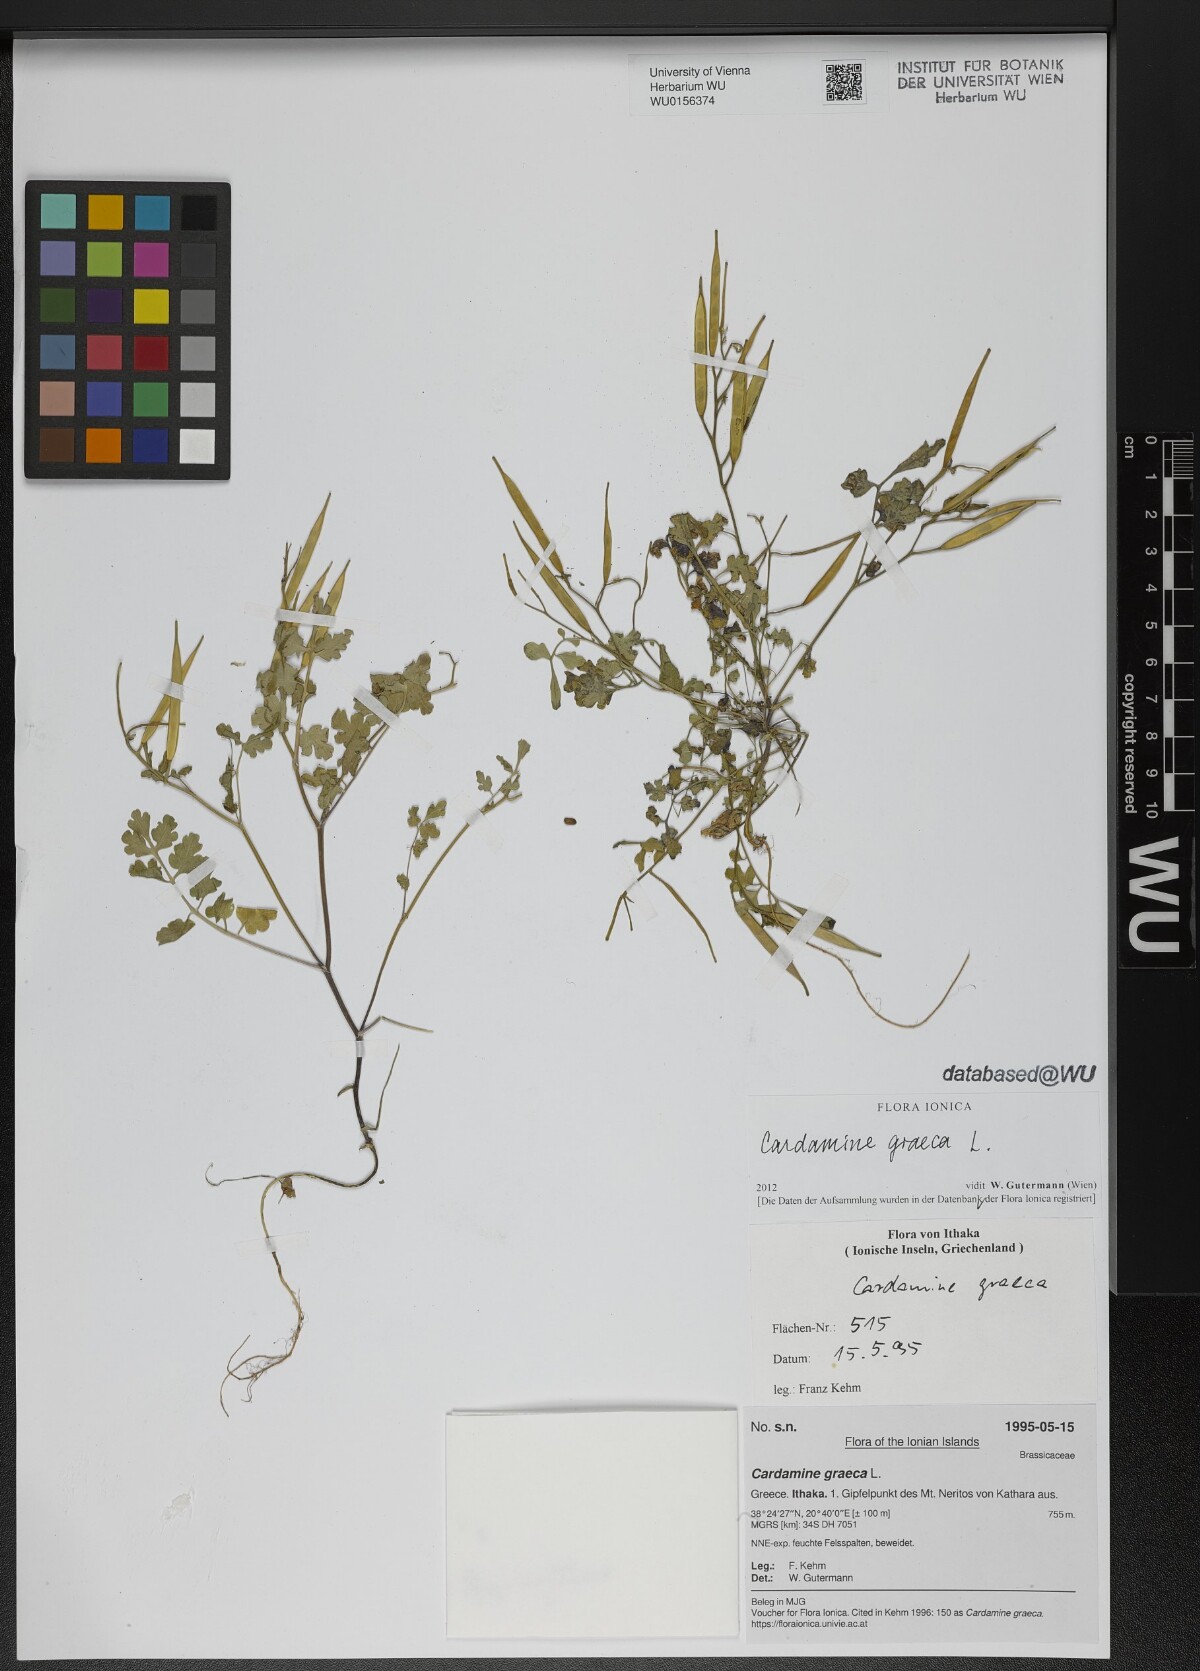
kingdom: Plantae
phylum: Tracheophyta
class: Magnoliopsida
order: Brassicales
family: Brassicaceae
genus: Cardamine
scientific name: Cardamine graeca
